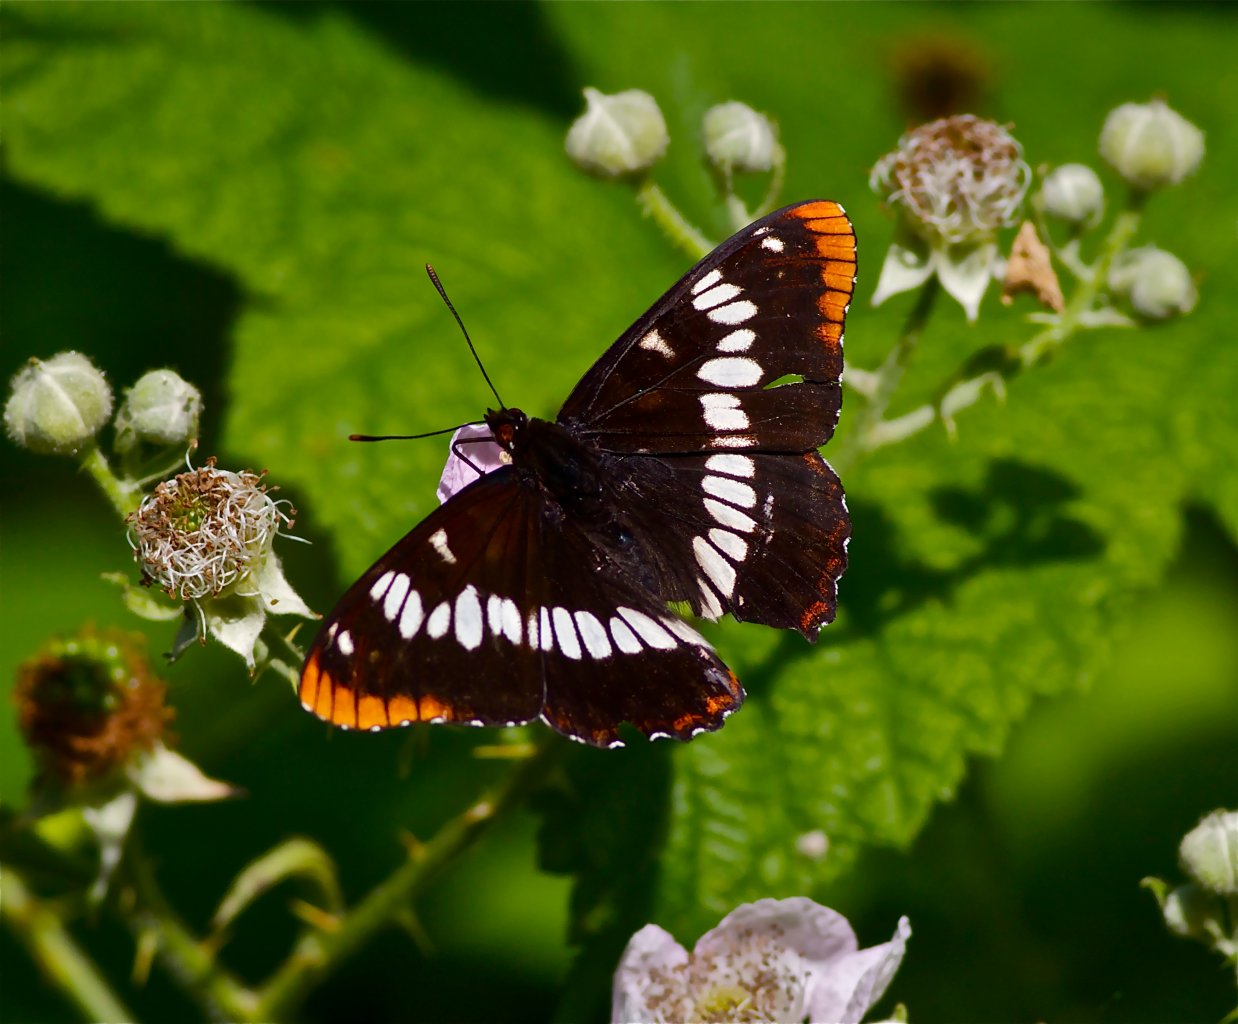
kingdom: Animalia
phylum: Arthropoda
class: Insecta
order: Lepidoptera
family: Nymphalidae
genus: Limenitis
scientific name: Limenitis lorquini
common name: Lorquin's Admiral
